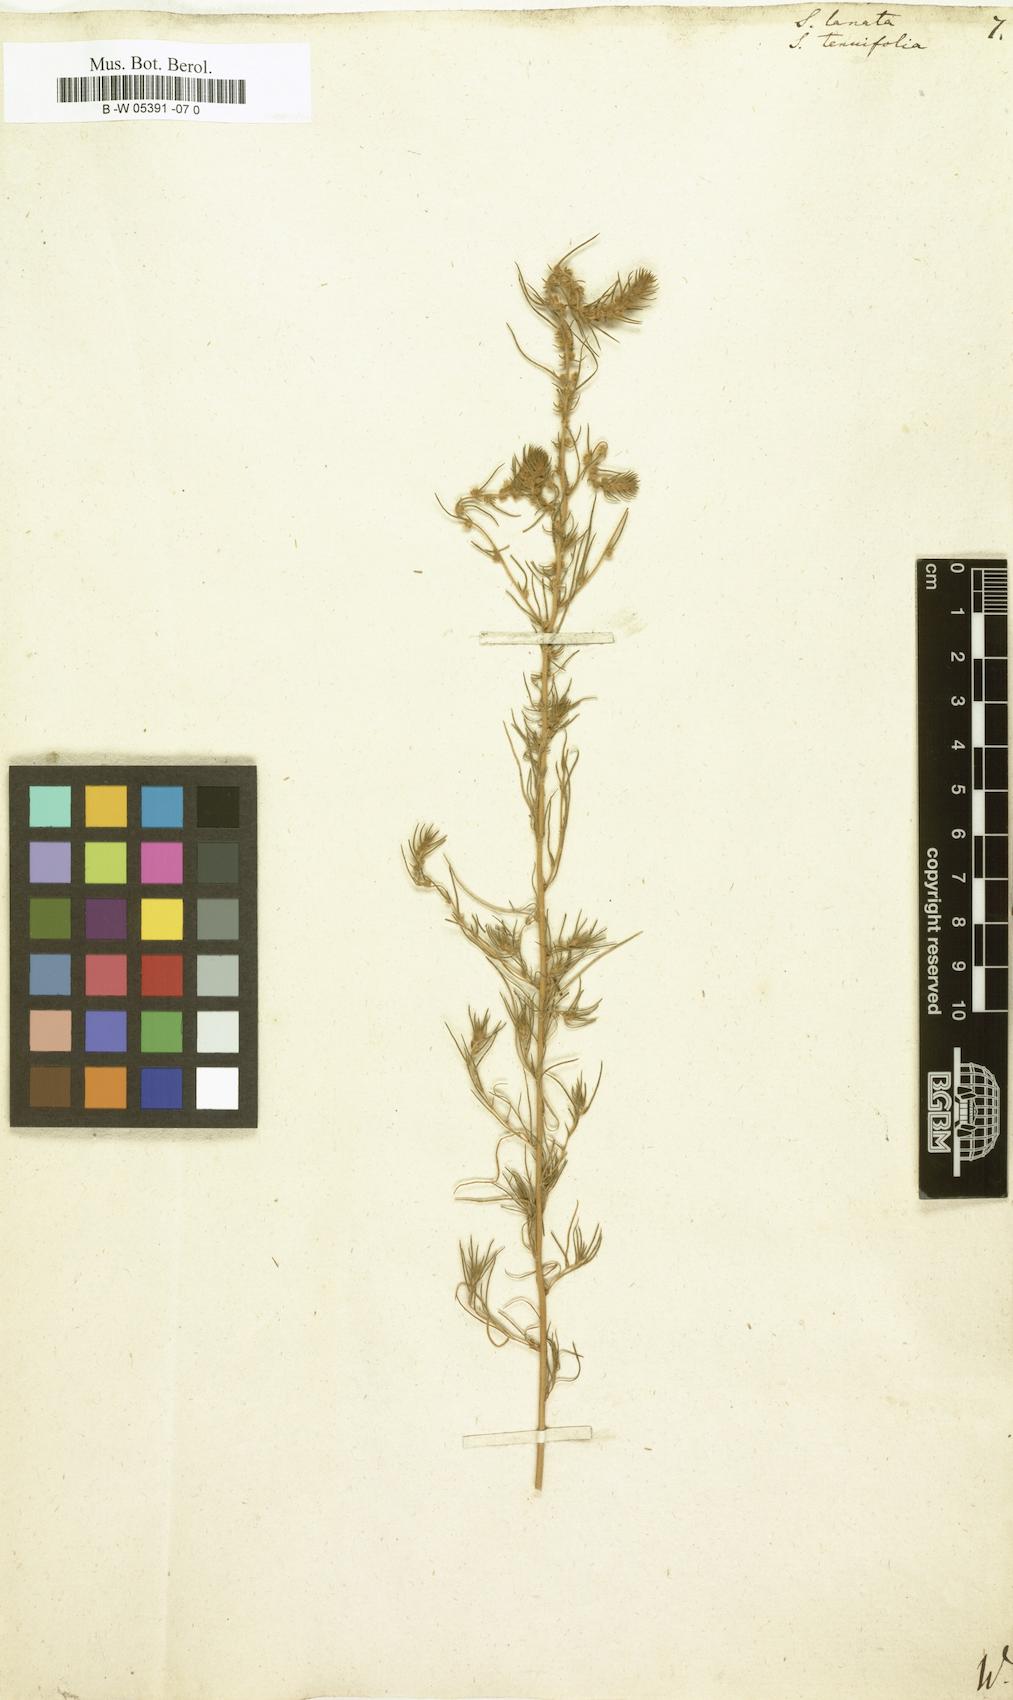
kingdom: Plantae
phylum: Tracheophyta
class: Magnoliopsida
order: Caryophyllales
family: Amaranthaceae
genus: Climacoptera
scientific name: Climacoptera lanata
